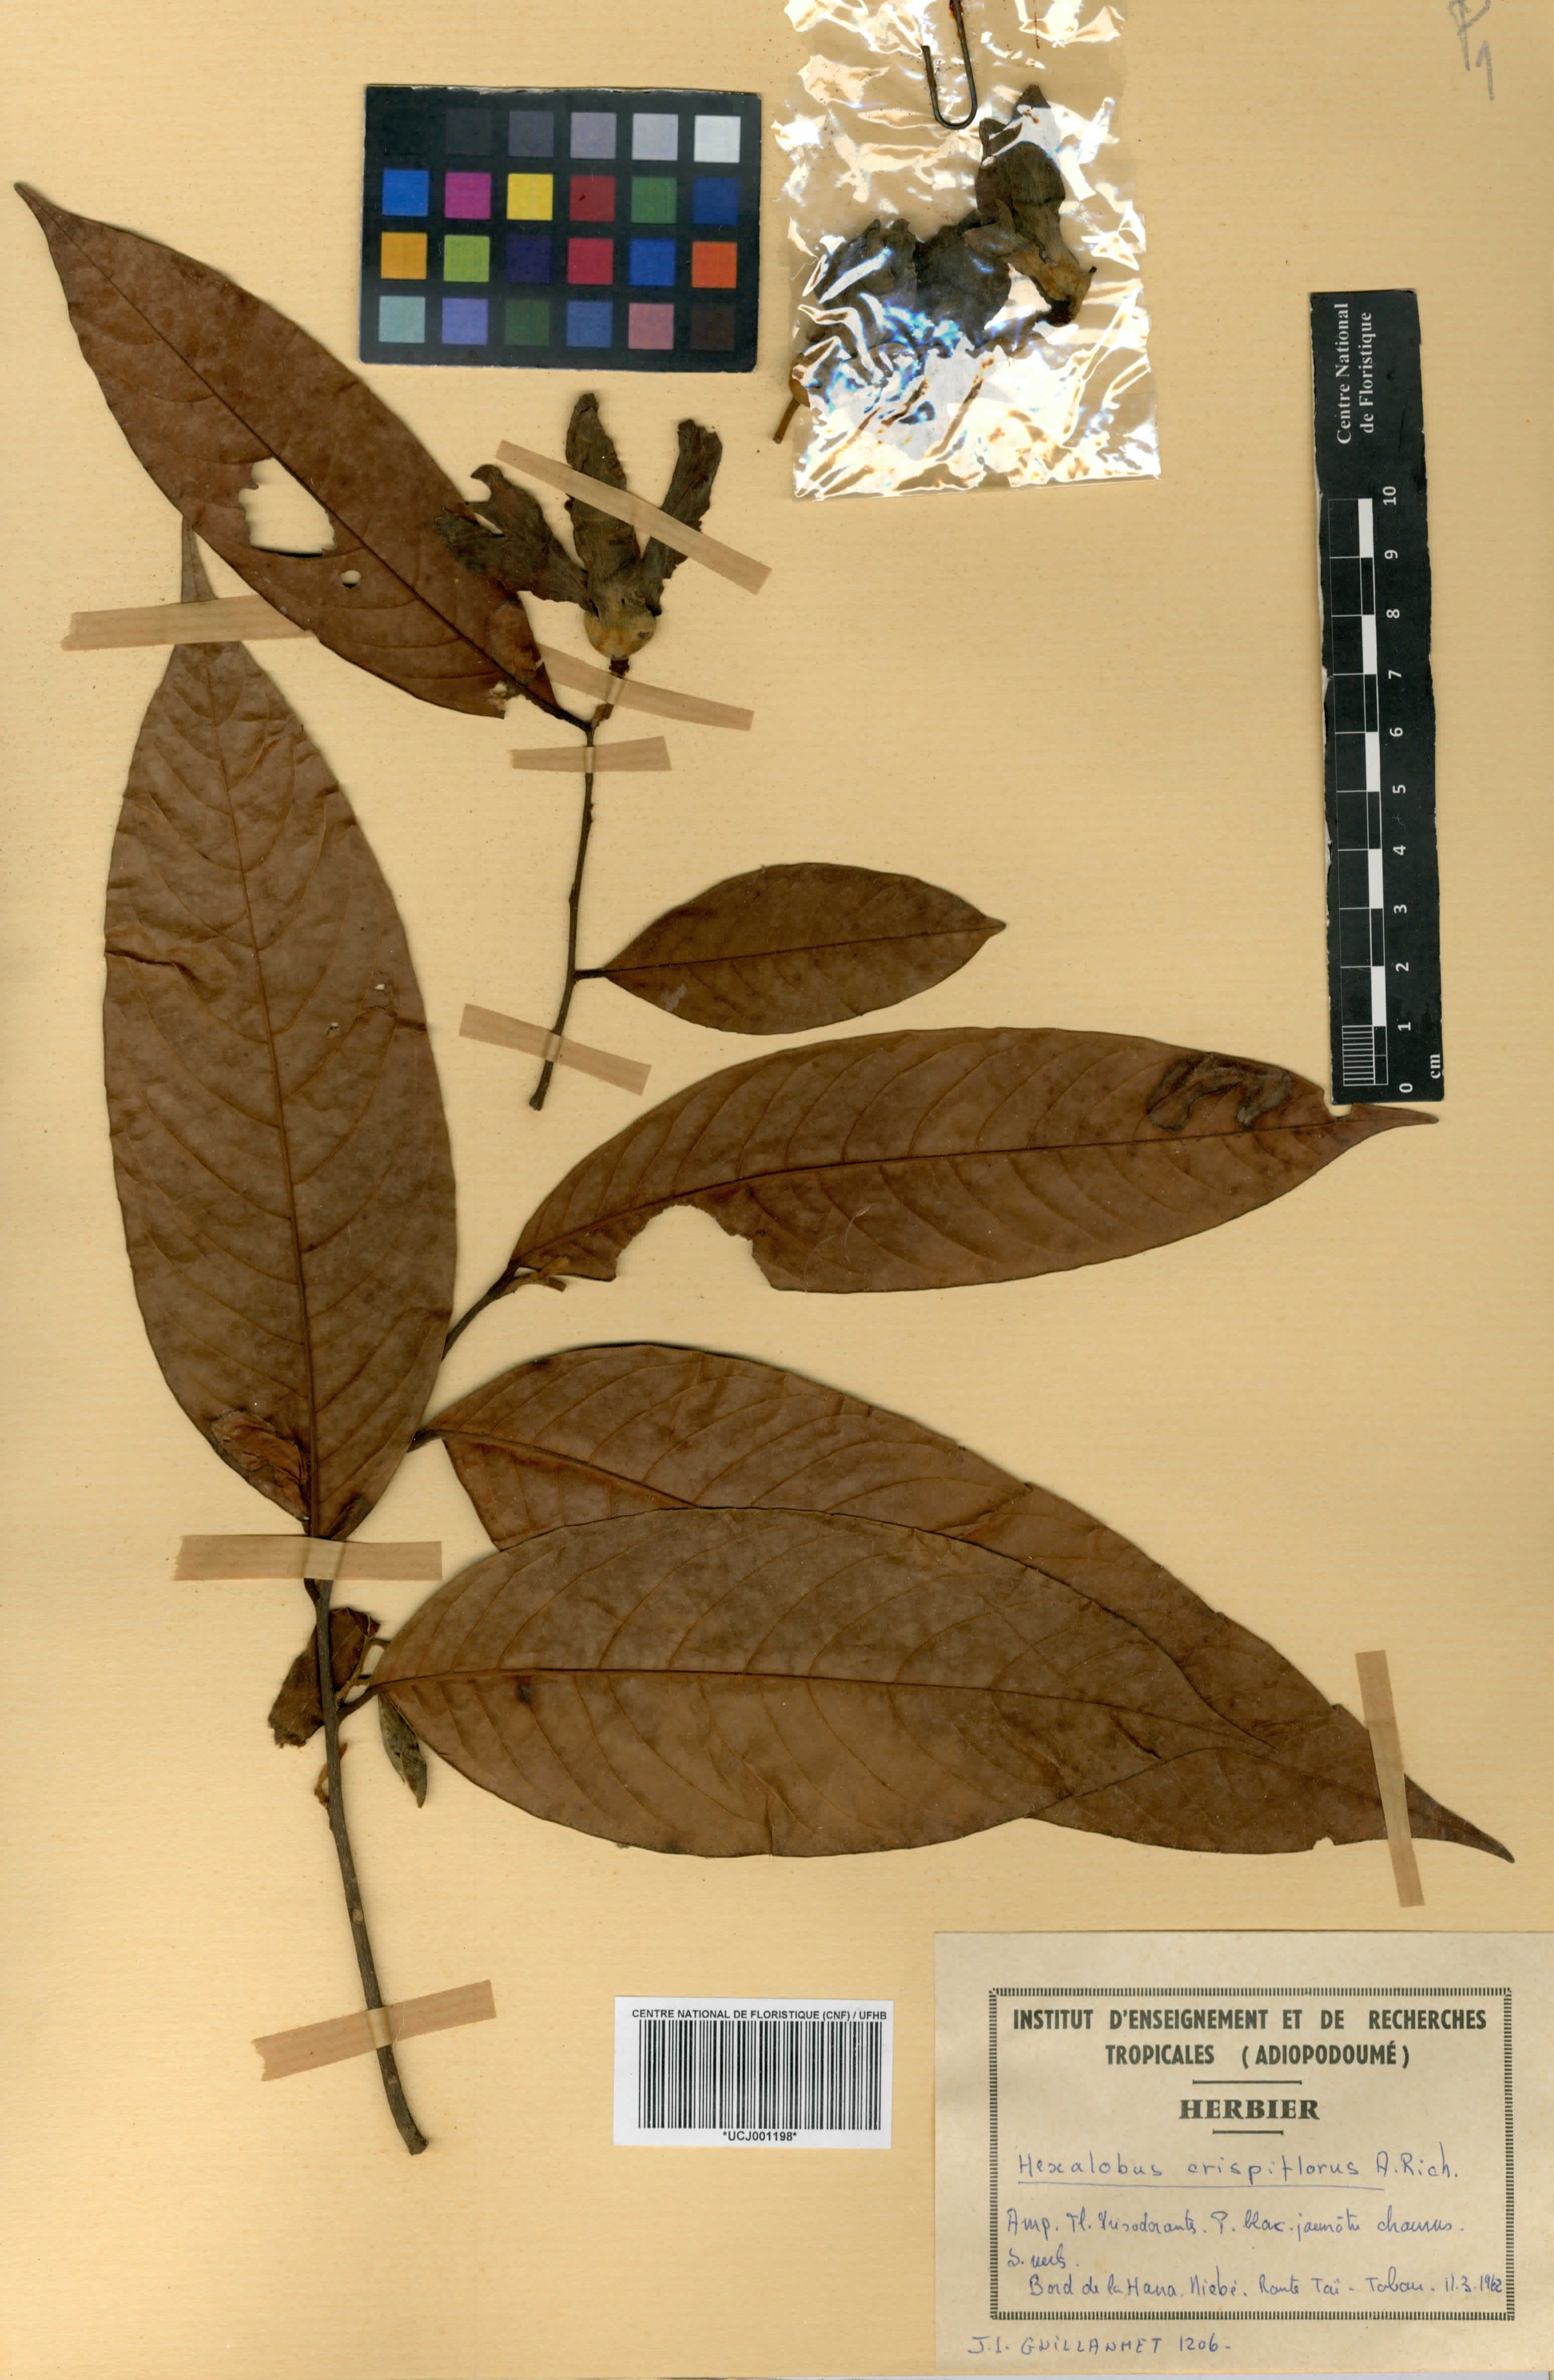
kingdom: Plantae
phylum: Tracheophyta
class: Magnoliopsida
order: Magnoliales
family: Annonaceae
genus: Hexalobus
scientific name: Hexalobus crispiflorus
